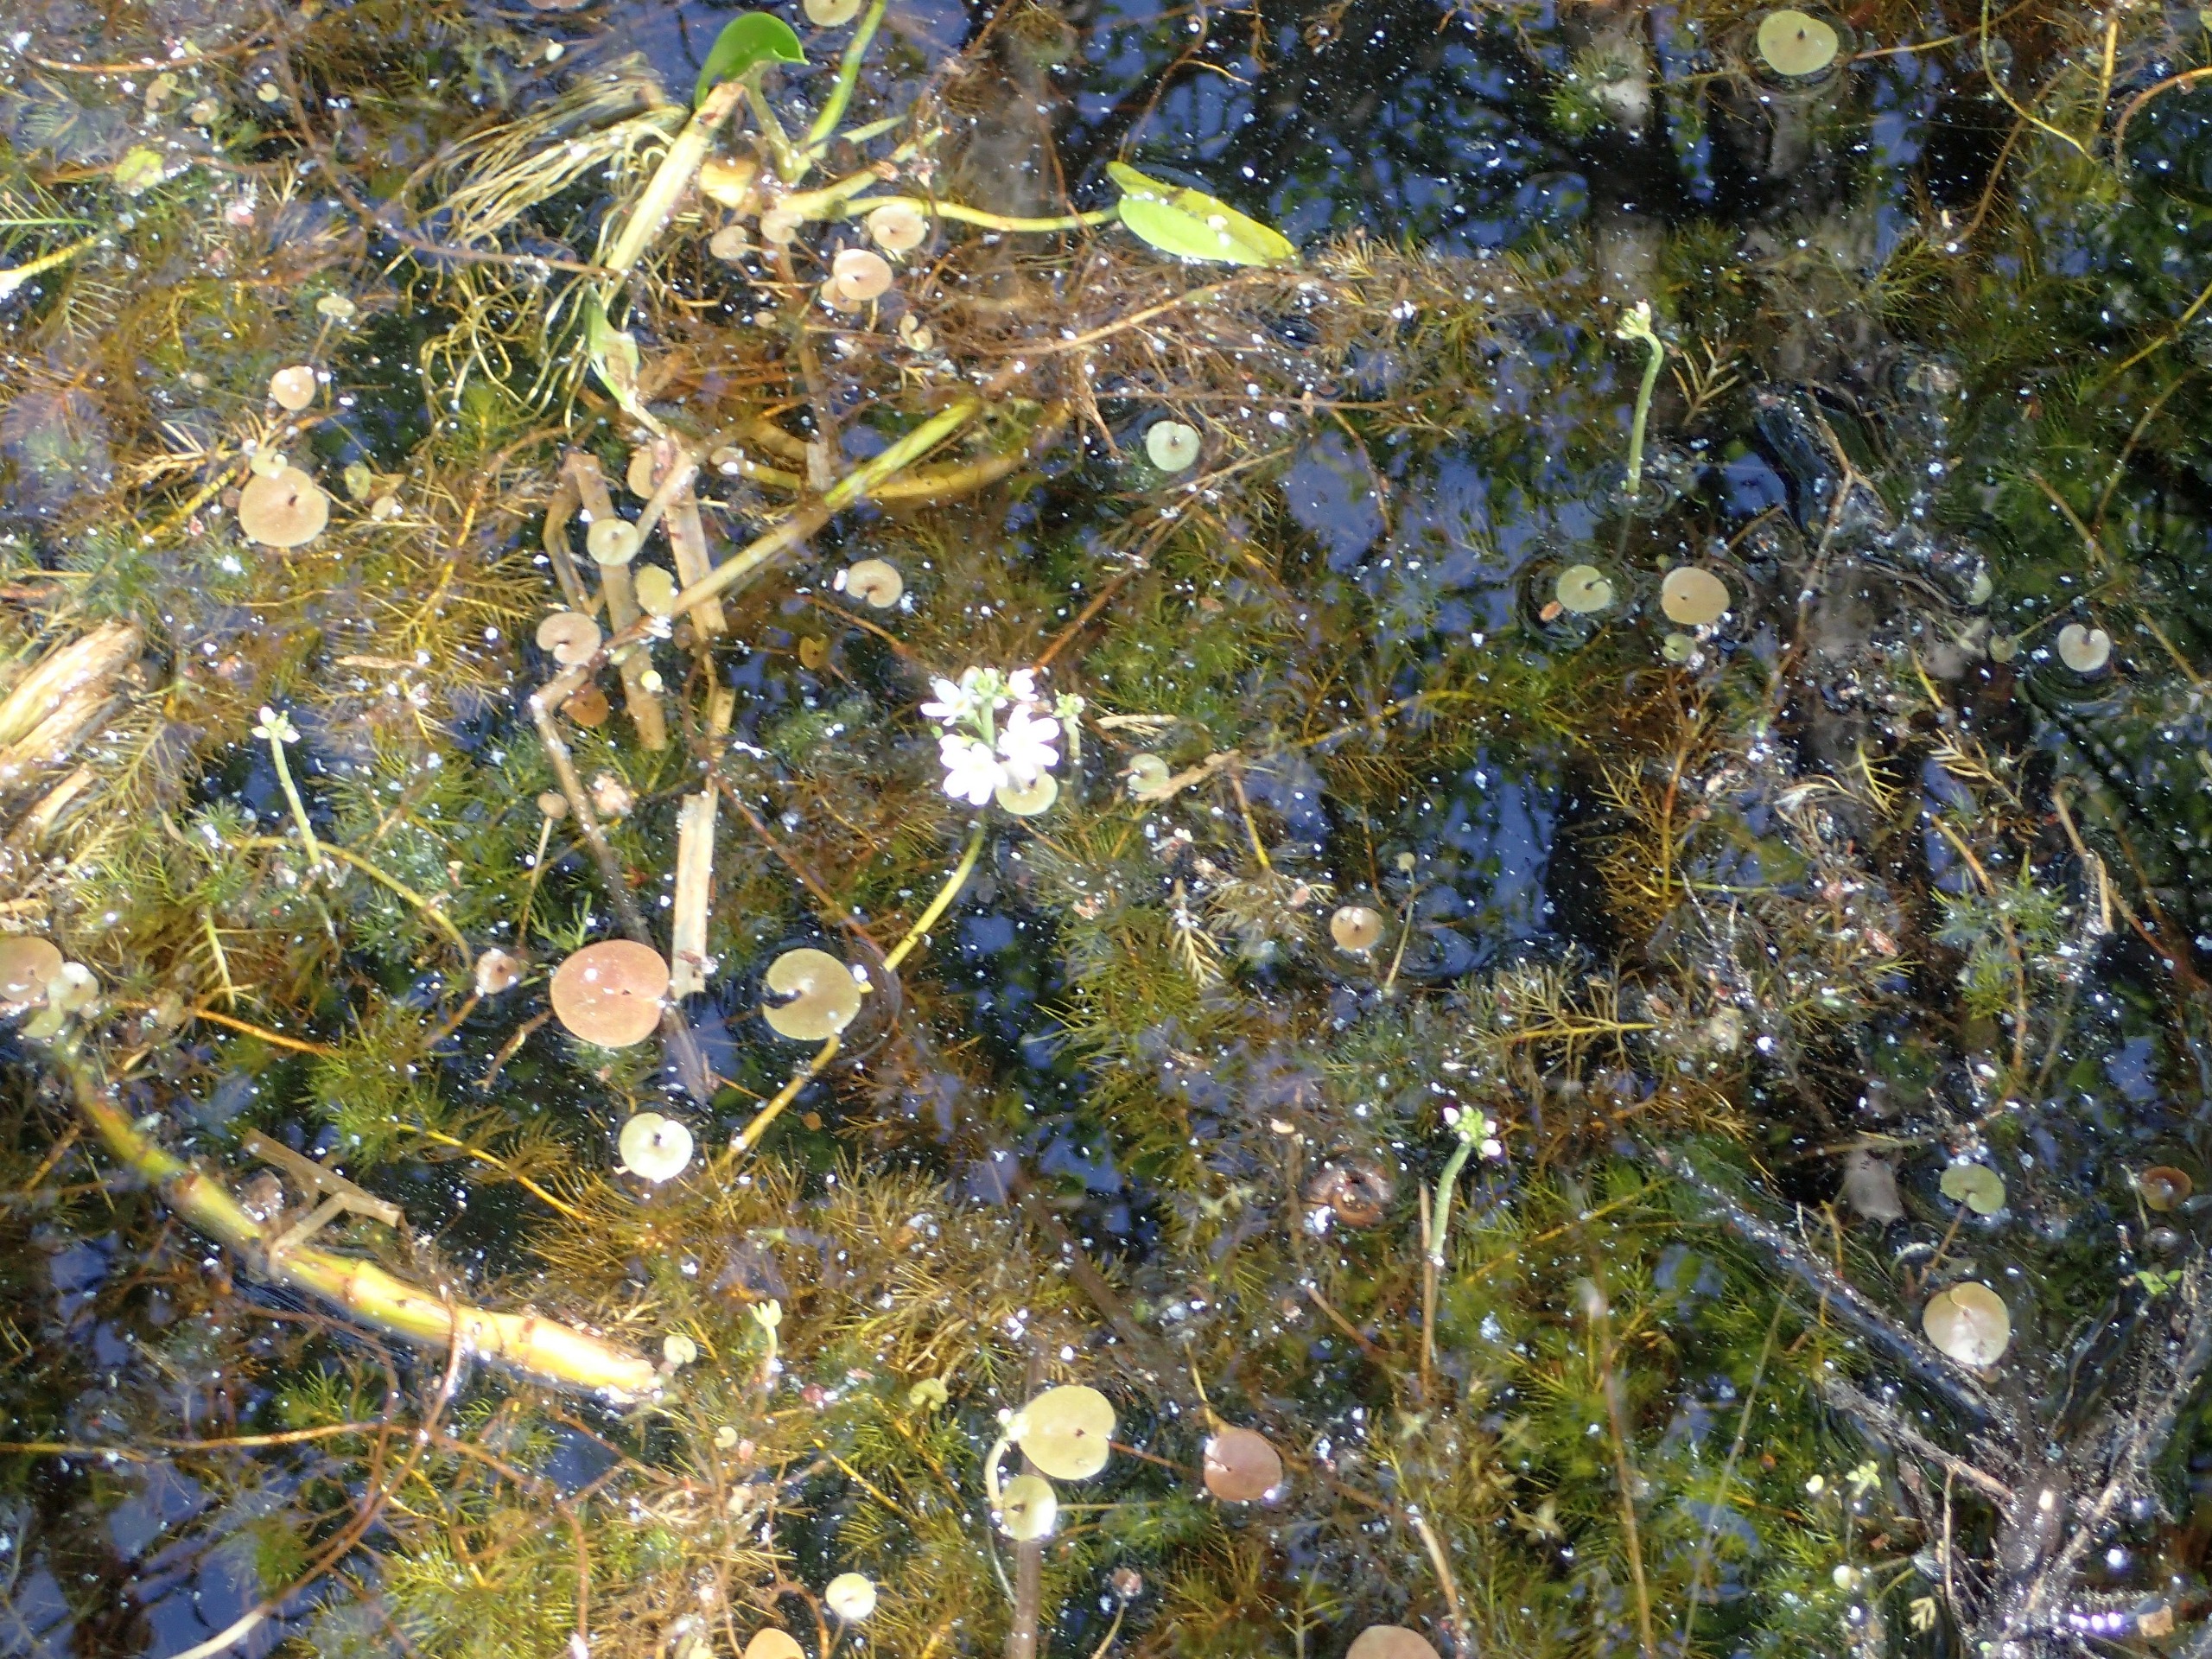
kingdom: Plantae
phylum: Tracheophyta
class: Magnoliopsida
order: Ericales
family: Primulaceae
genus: Hottonia
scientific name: Hottonia palustris
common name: Vandrøllike
